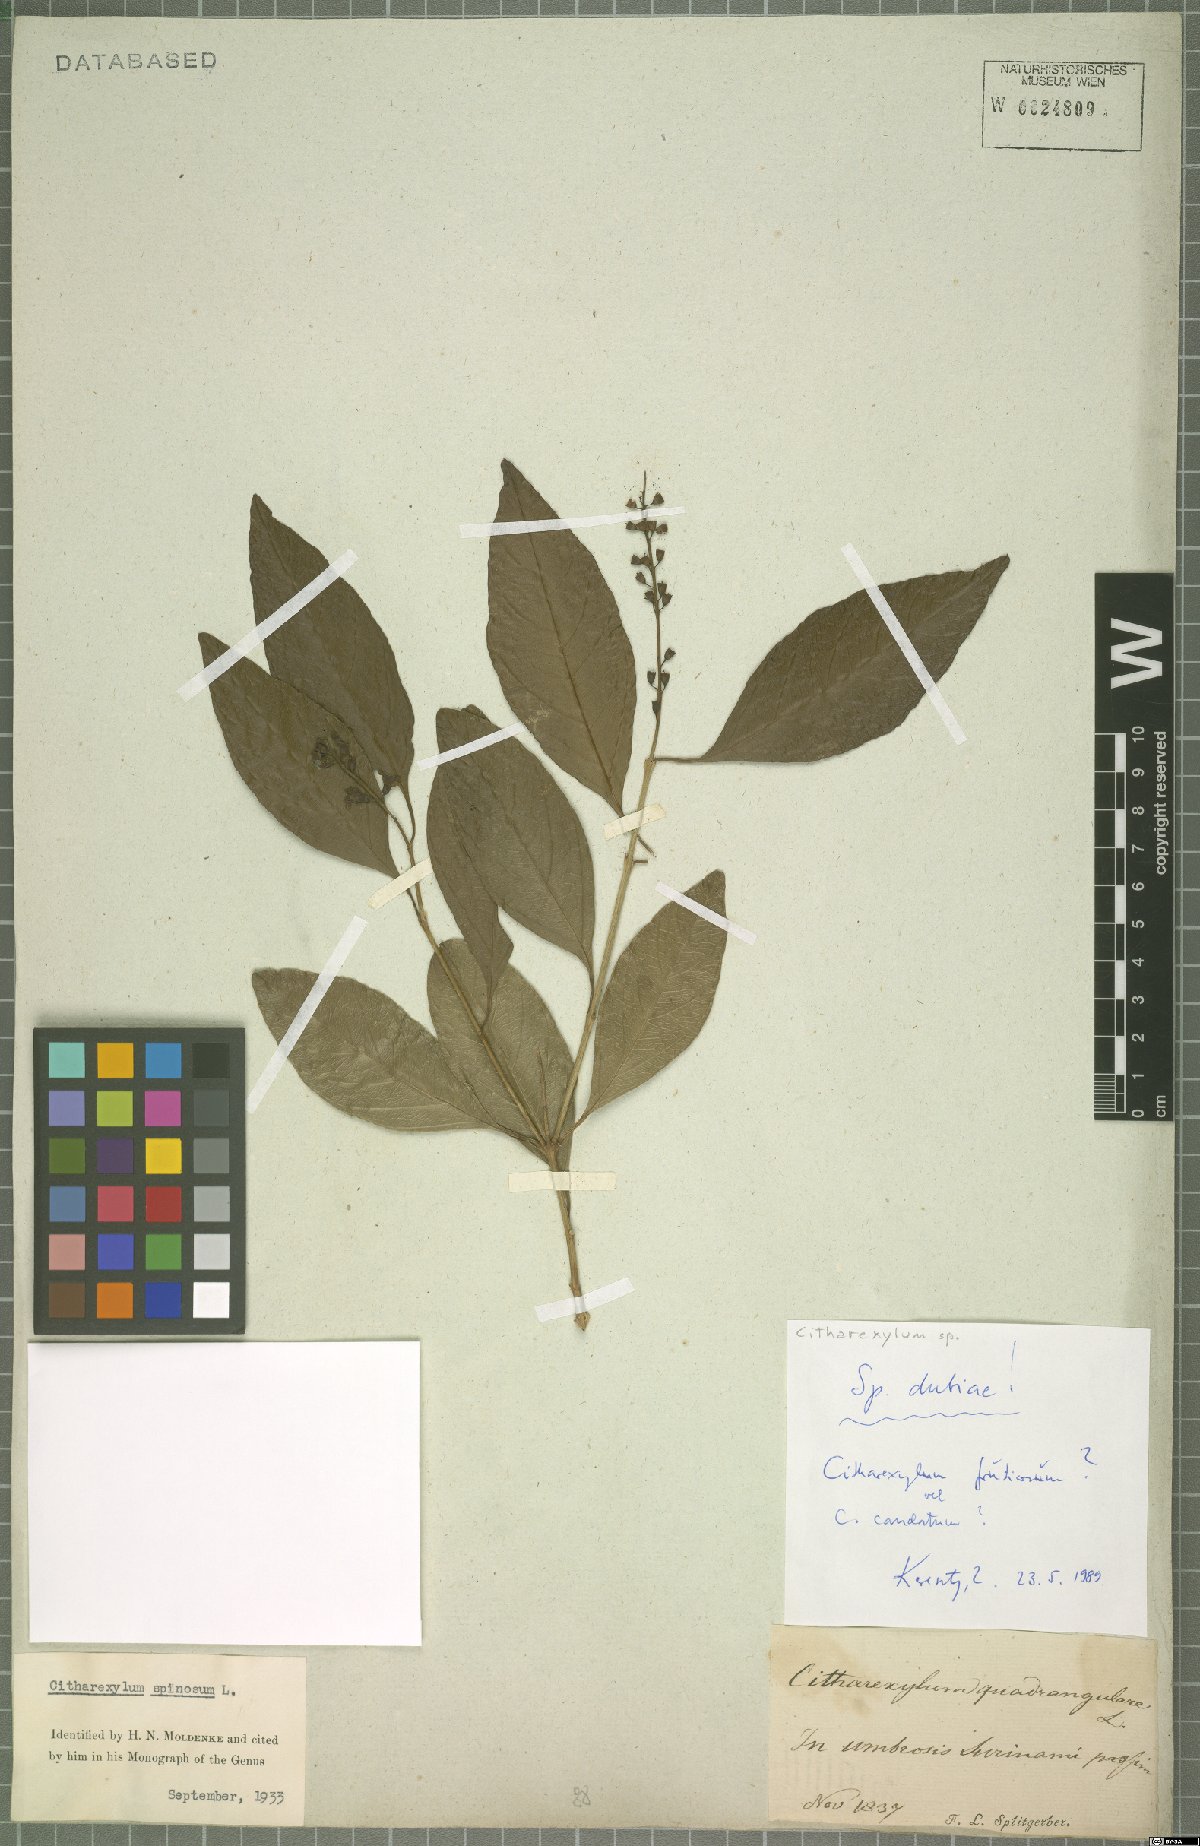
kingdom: Plantae
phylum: Tracheophyta
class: Magnoliopsida
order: Lamiales
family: Verbenaceae
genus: Citharexylum
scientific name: Citharexylum
